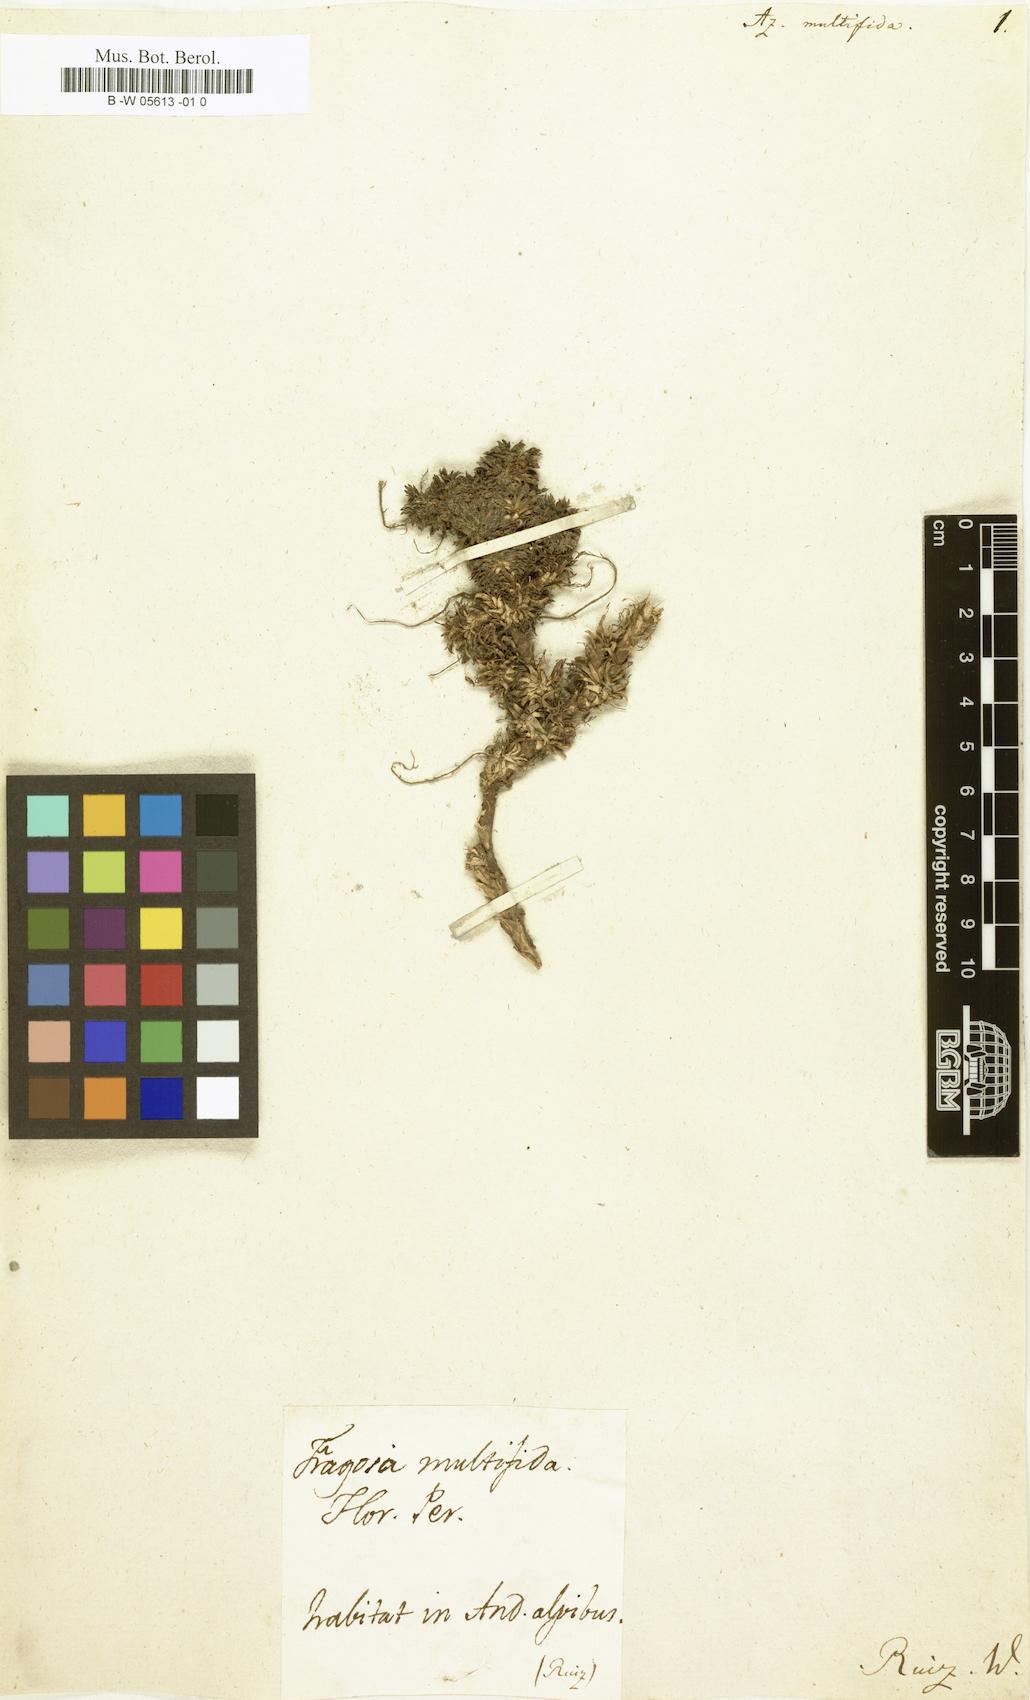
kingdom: Plantae
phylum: Tracheophyta
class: Magnoliopsida
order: Apiales
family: Apiaceae
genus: Azorella
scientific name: Azorella multifida
